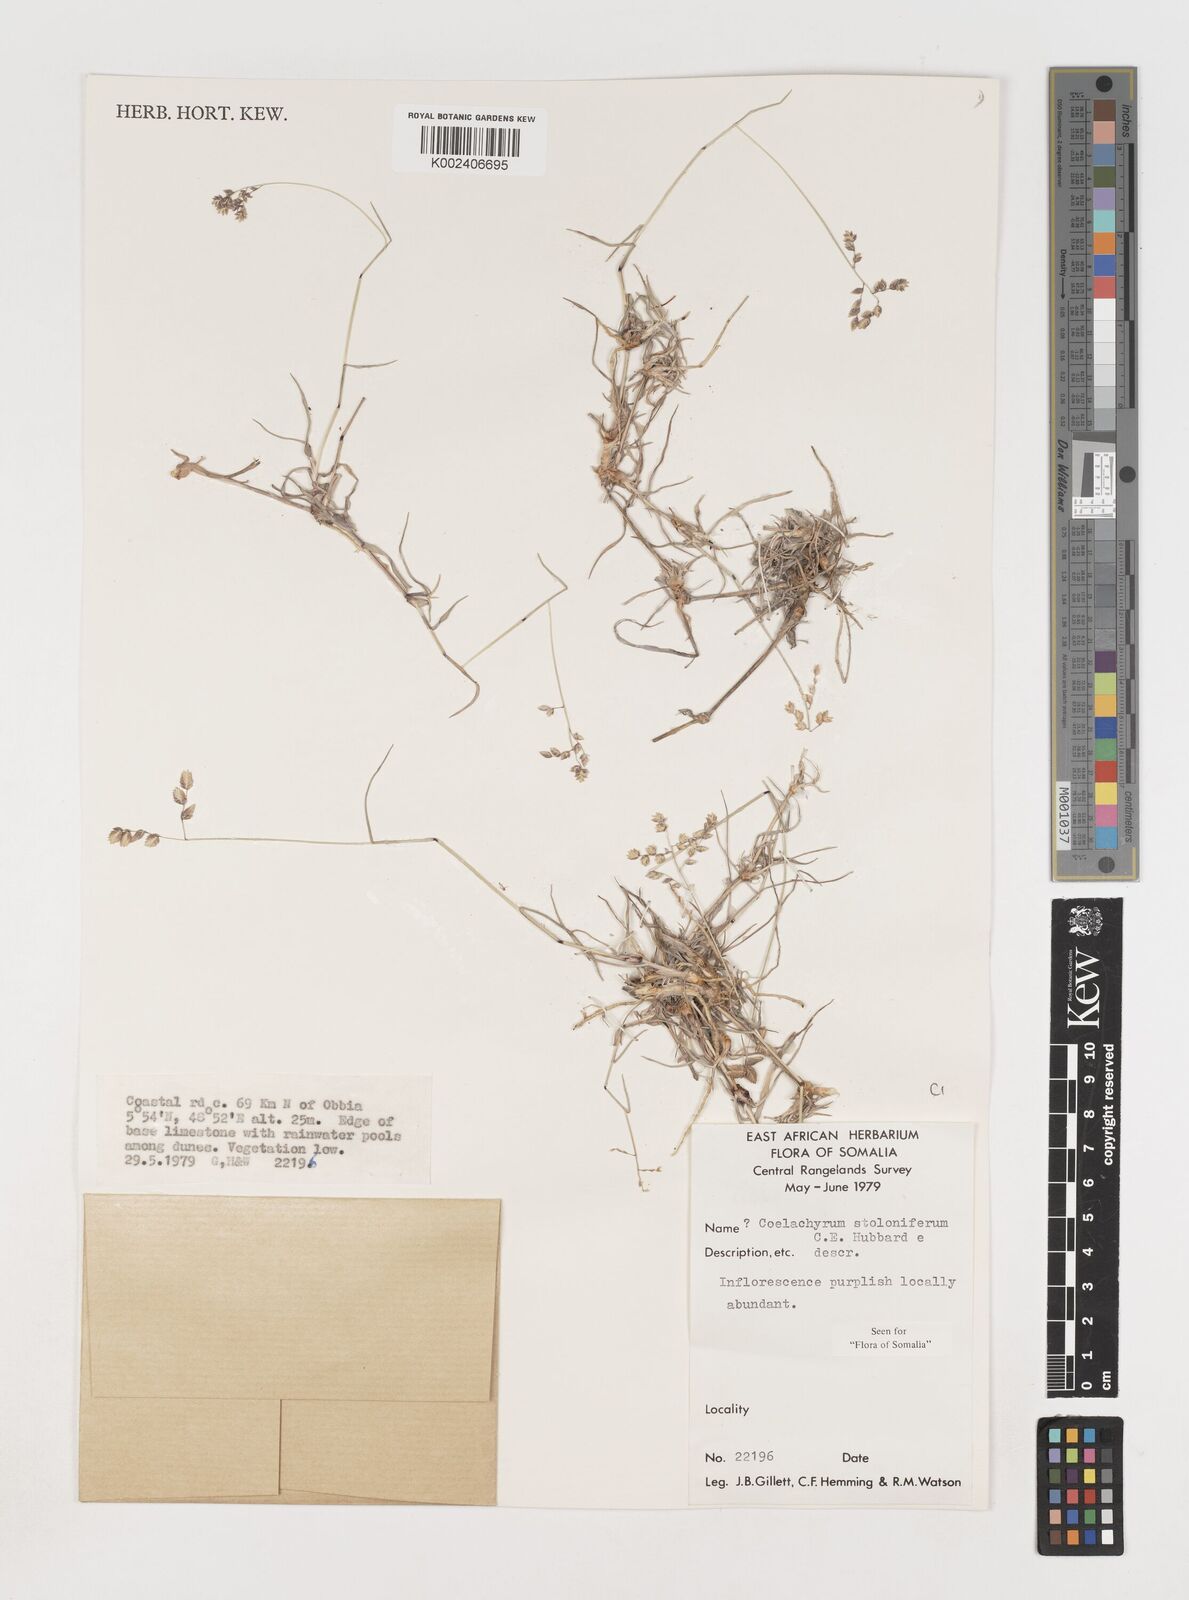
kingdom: Plantae
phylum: Tracheophyta
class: Liliopsida
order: Poales
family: Poaceae
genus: Coelachyrum
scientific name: Coelachyrum piercei
